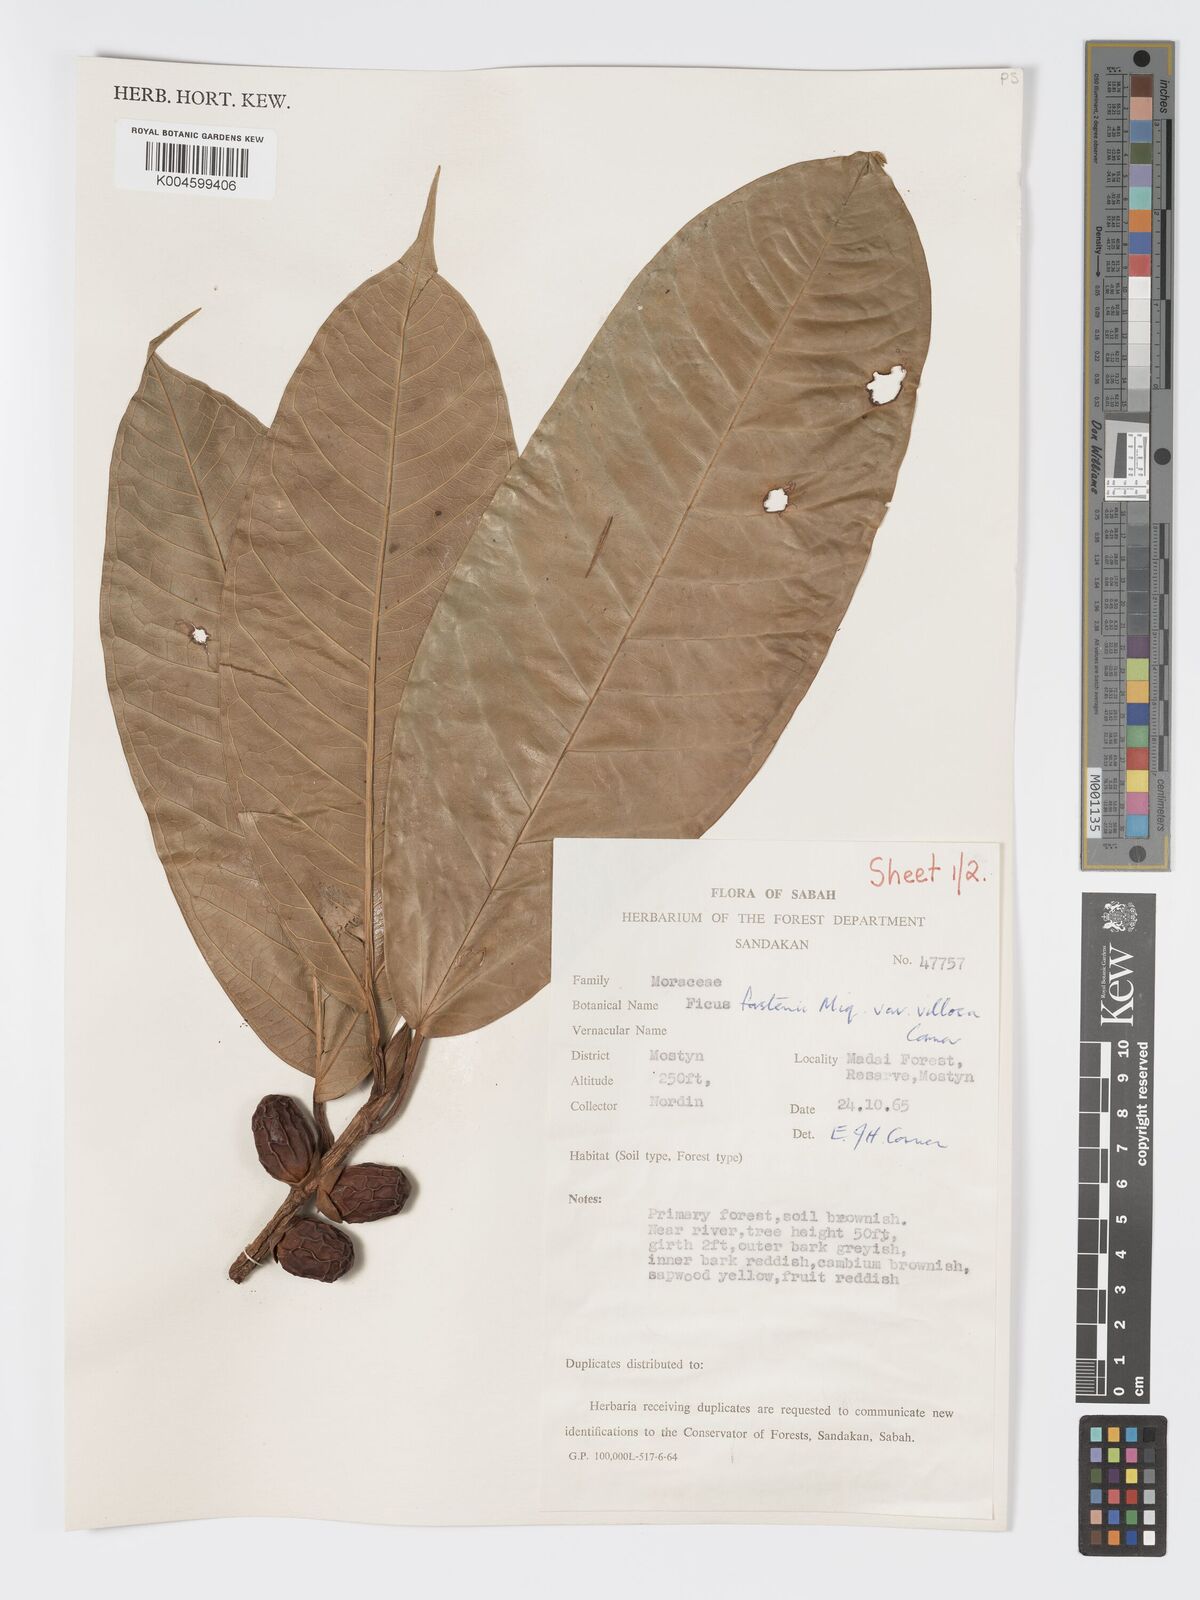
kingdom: Plantae
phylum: Tracheophyta
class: Magnoliopsida
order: Rosales
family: Moraceae
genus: Ficus
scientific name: Ficus forstenii
